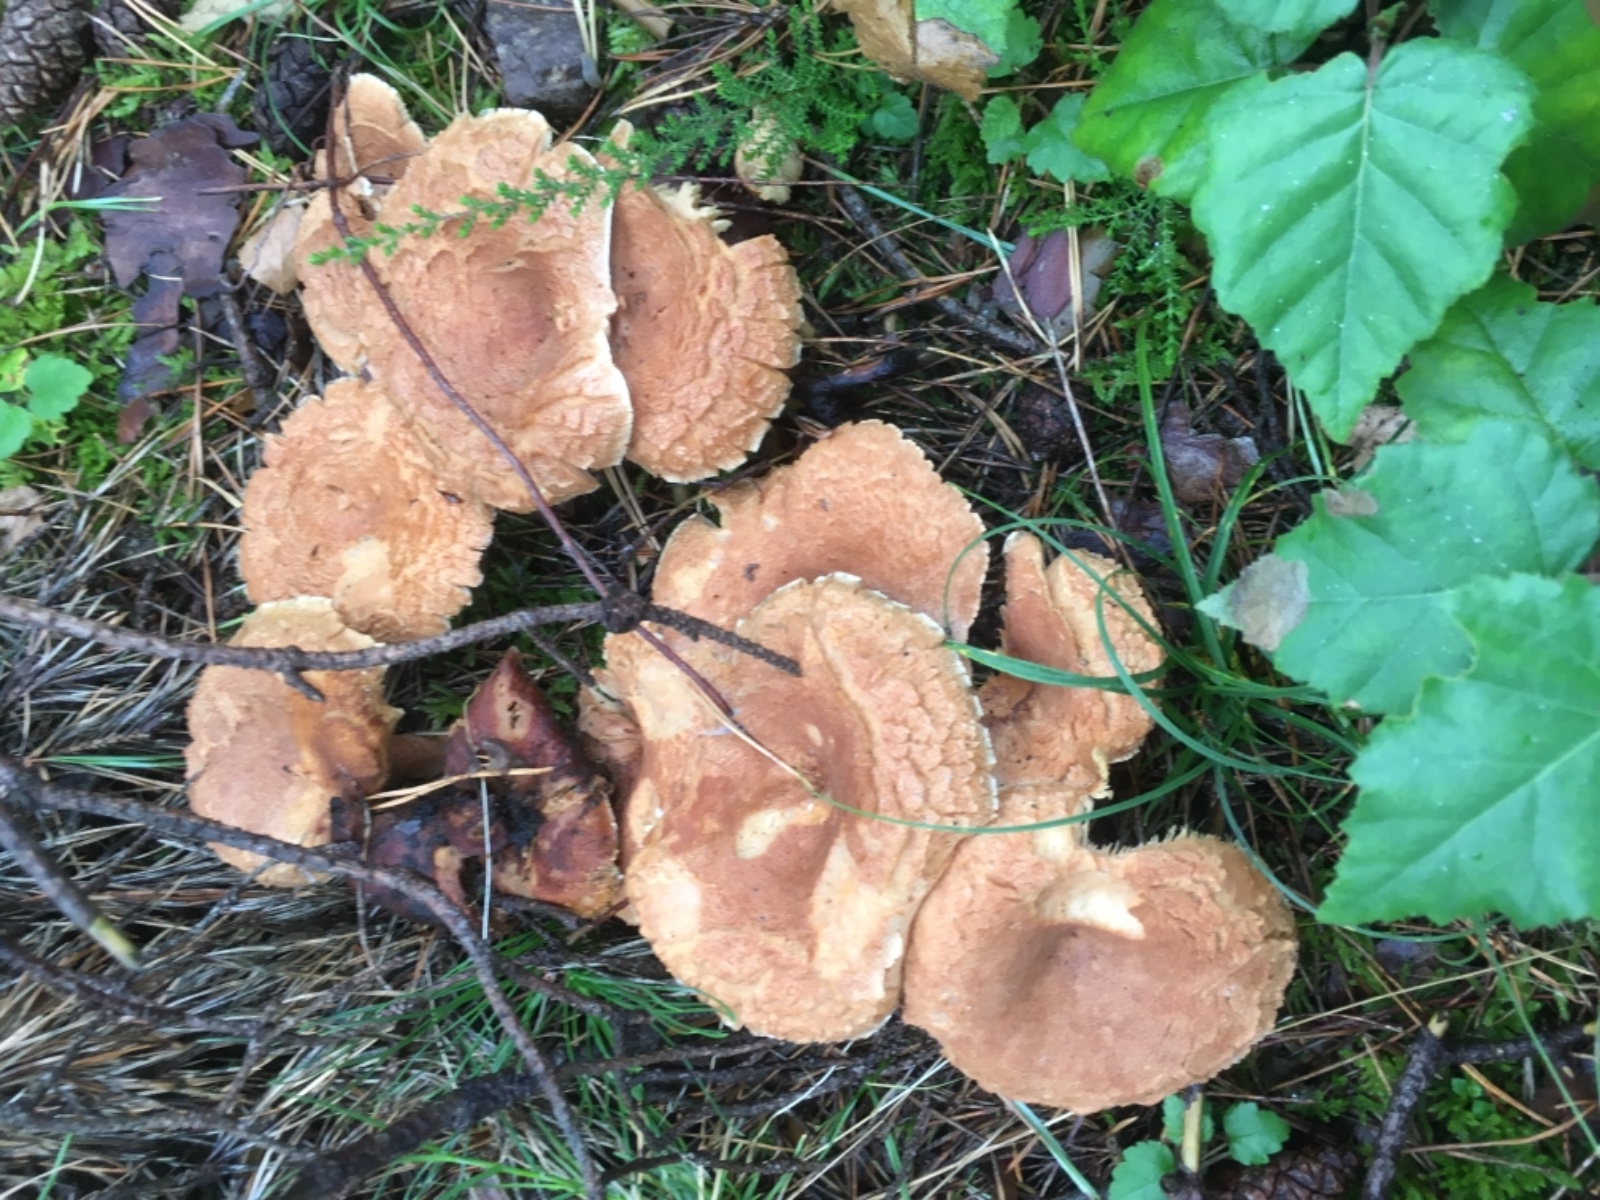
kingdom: Fungi
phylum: Basidiomycota
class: Agaricomycetes
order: Russulales
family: Russulaceae
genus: Lactarius
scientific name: Lactarius helvus
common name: mose-mælkehat
